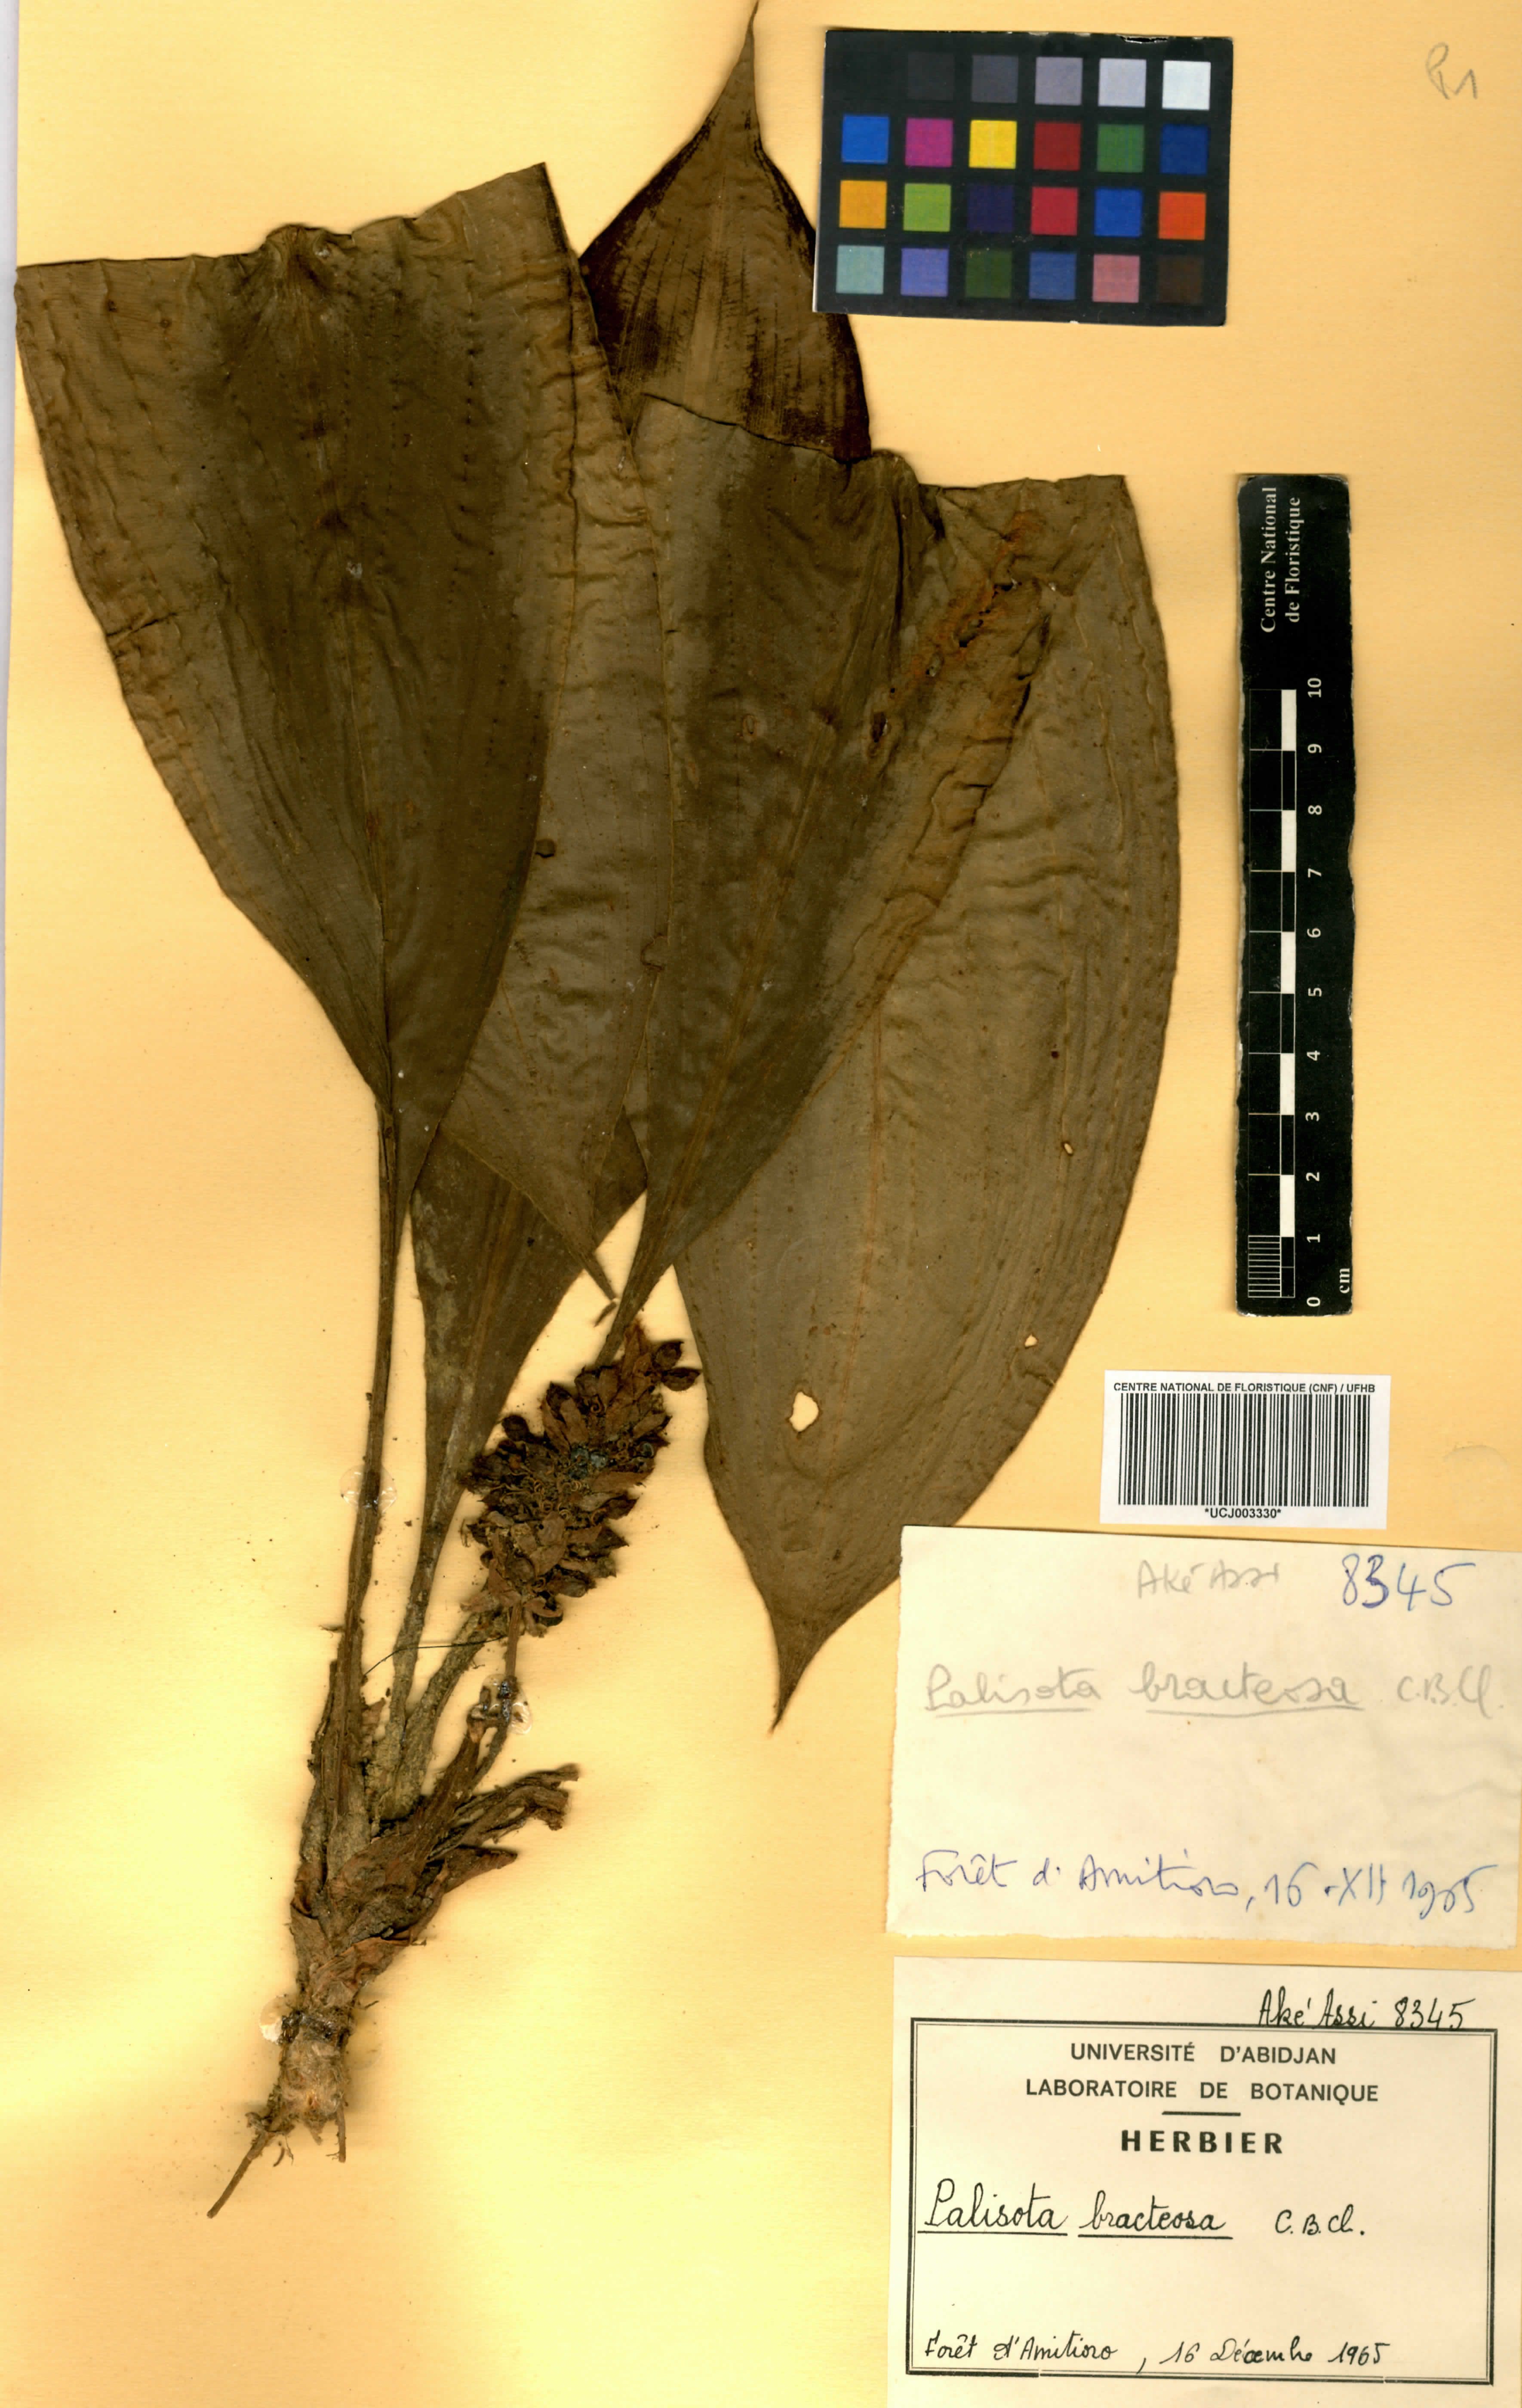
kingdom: Plantae
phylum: Tracheophyta
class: Liliopsida
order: Commelinales
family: Commelinaceae
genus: Palisota
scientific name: Palisota bracteosa
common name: Palisota
